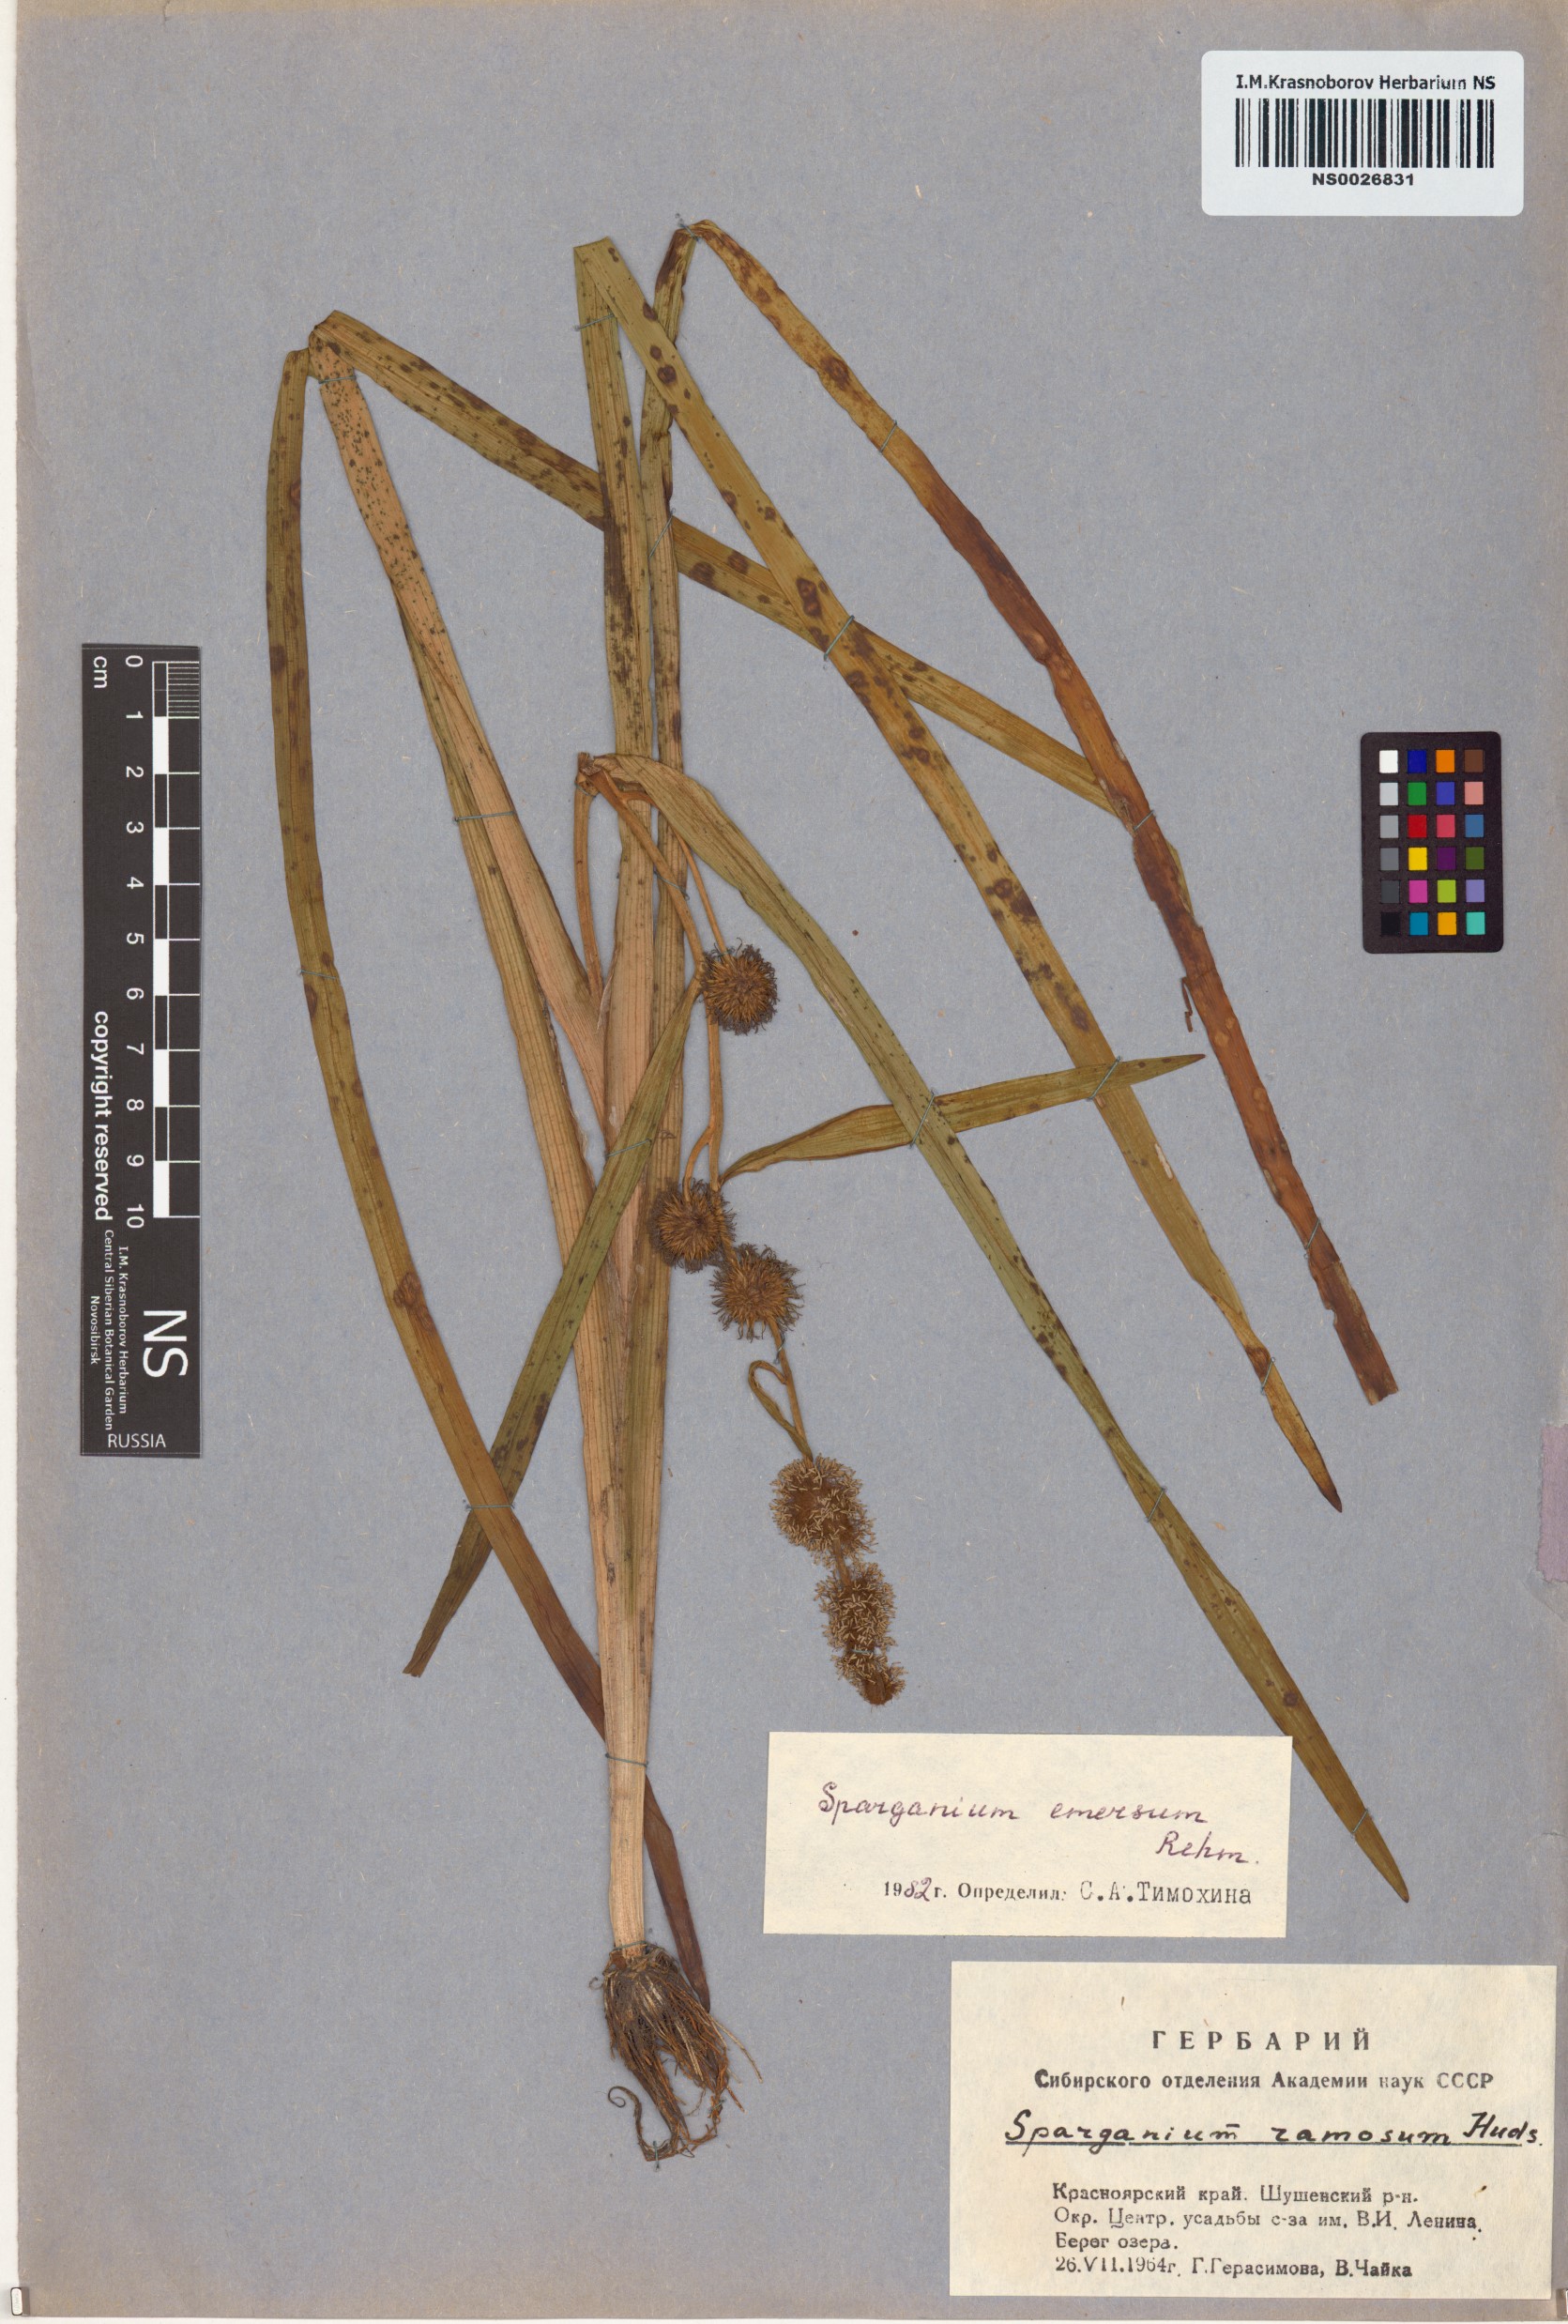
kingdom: Plantae
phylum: Tracheophyta
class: Liliopsida
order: Poales
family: Typhaceae
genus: Sparganium
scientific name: Sparganium emersum
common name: Unbranched bur-reed
